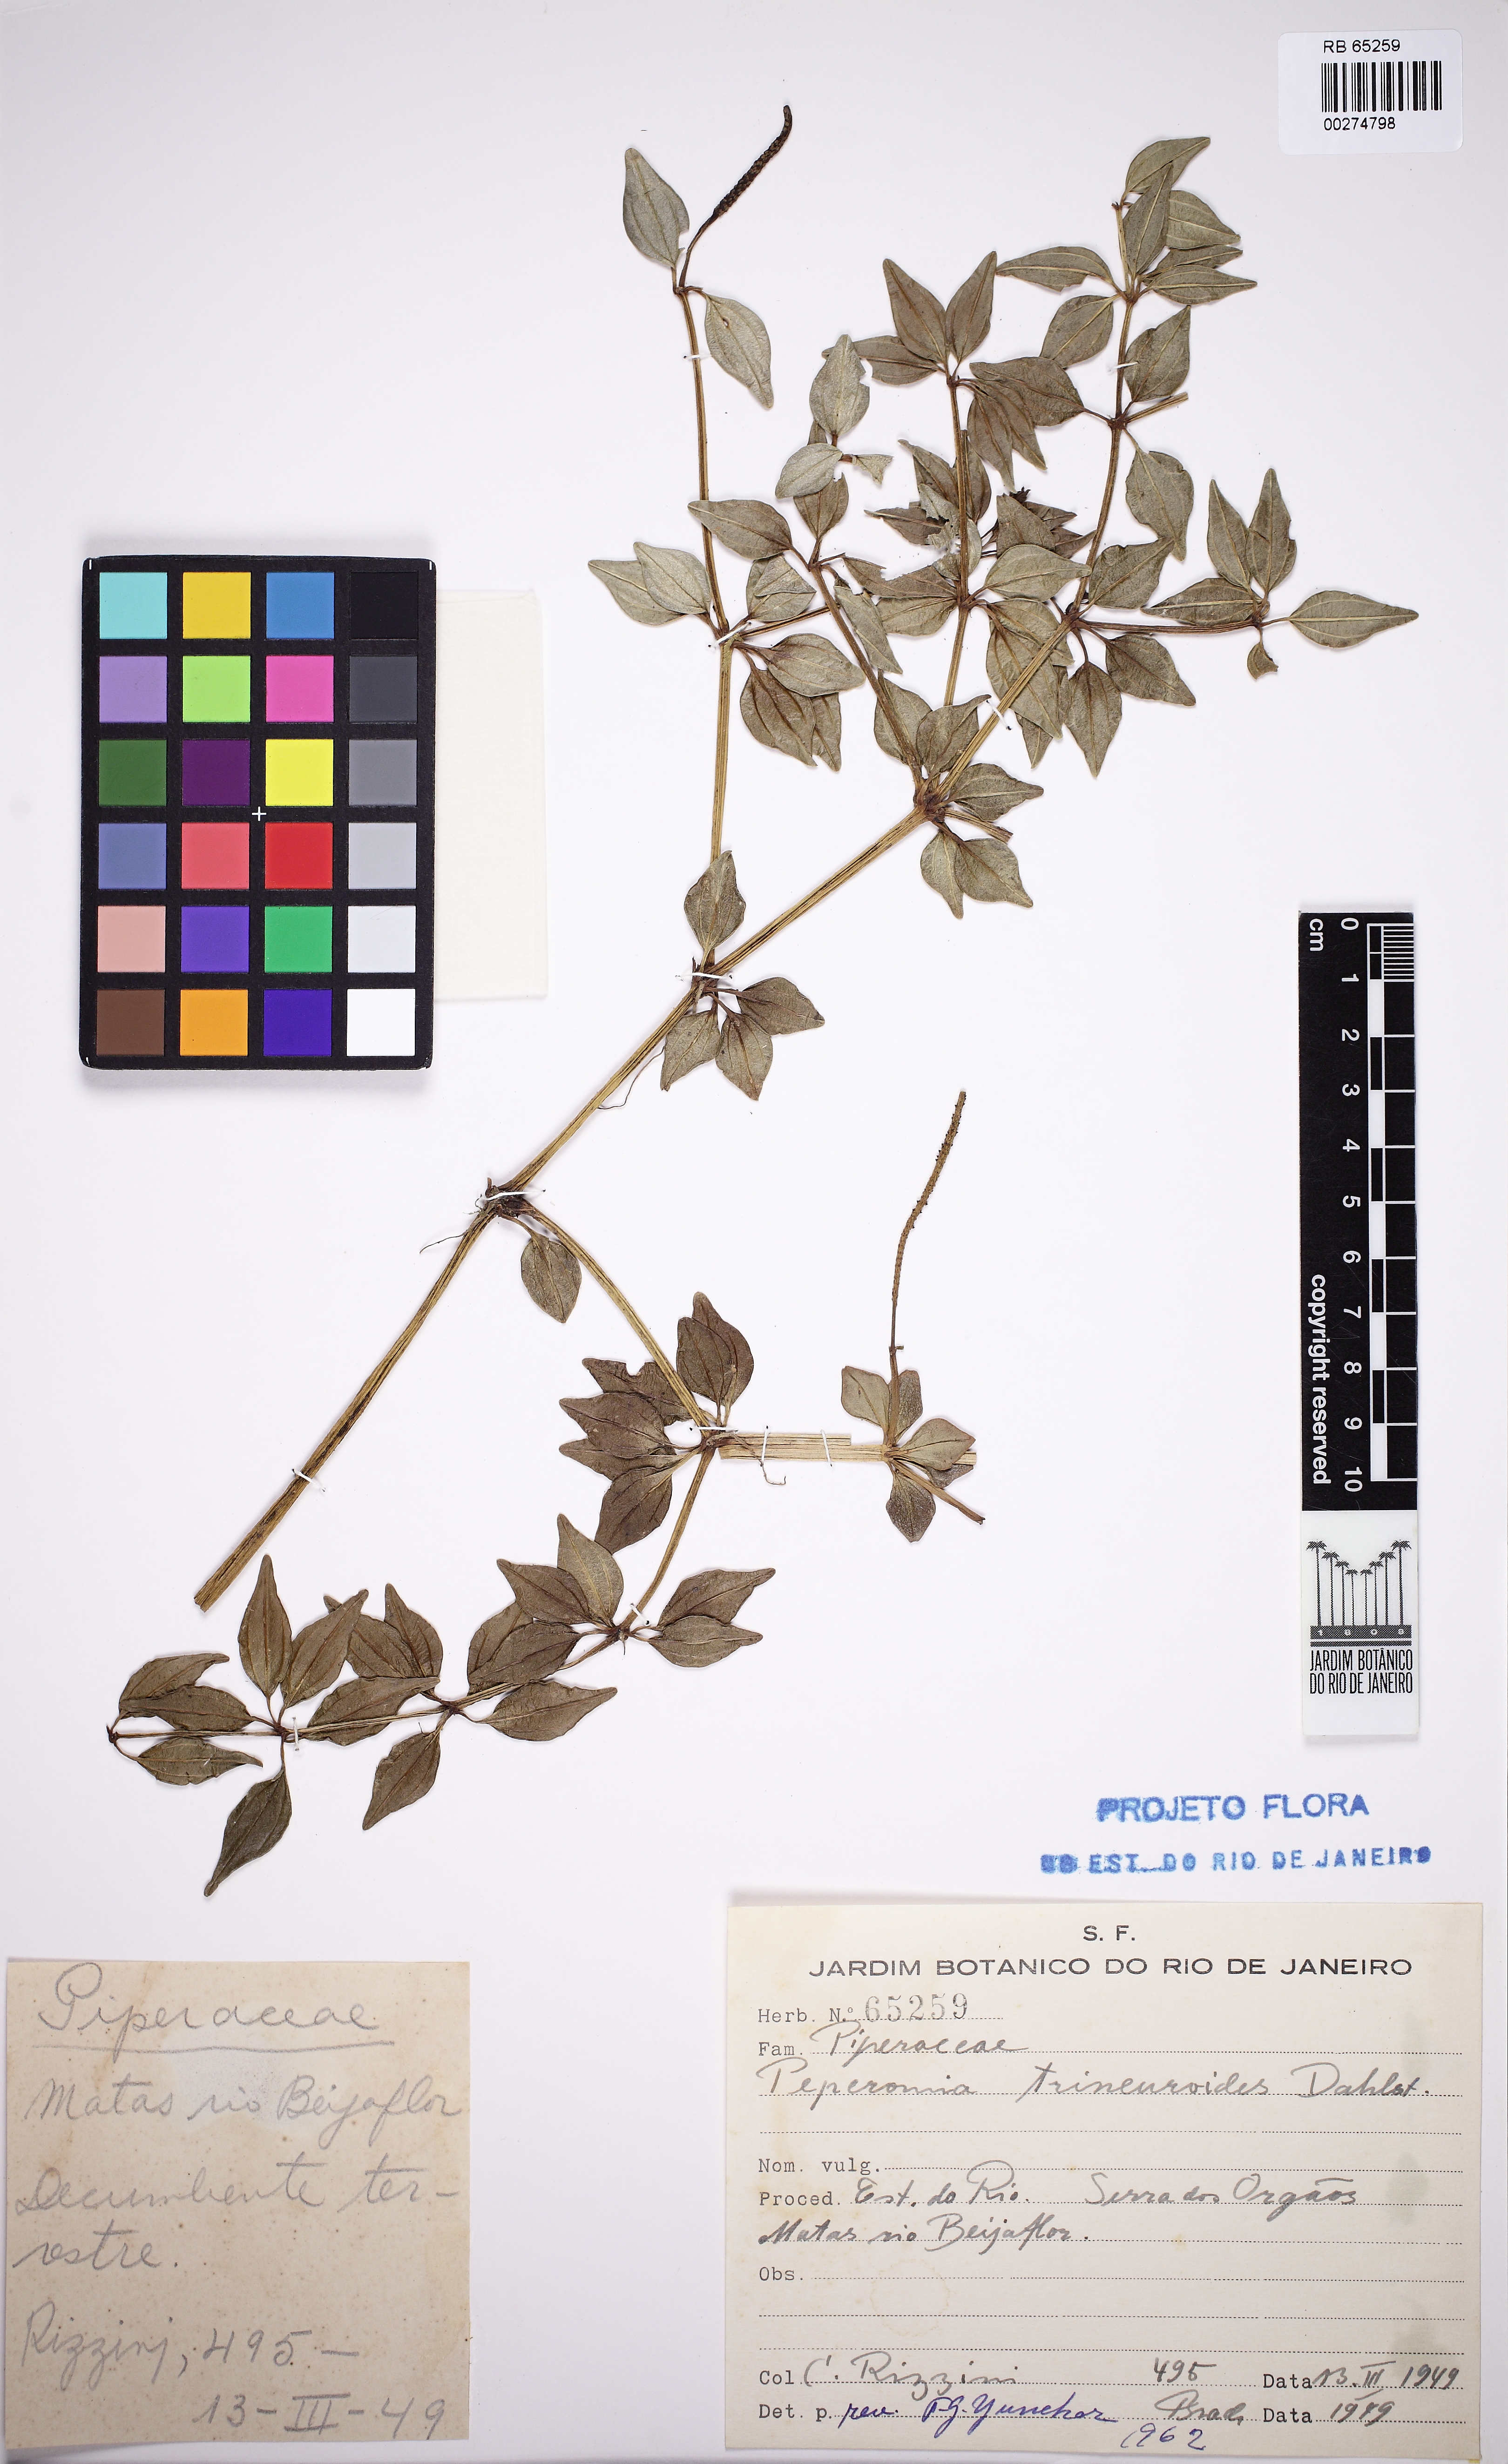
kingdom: Plantae
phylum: Tracheophyta
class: Magnoliopsida
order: Piperales
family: Piperaceae
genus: Peperomia
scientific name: Peperomia trinervis
